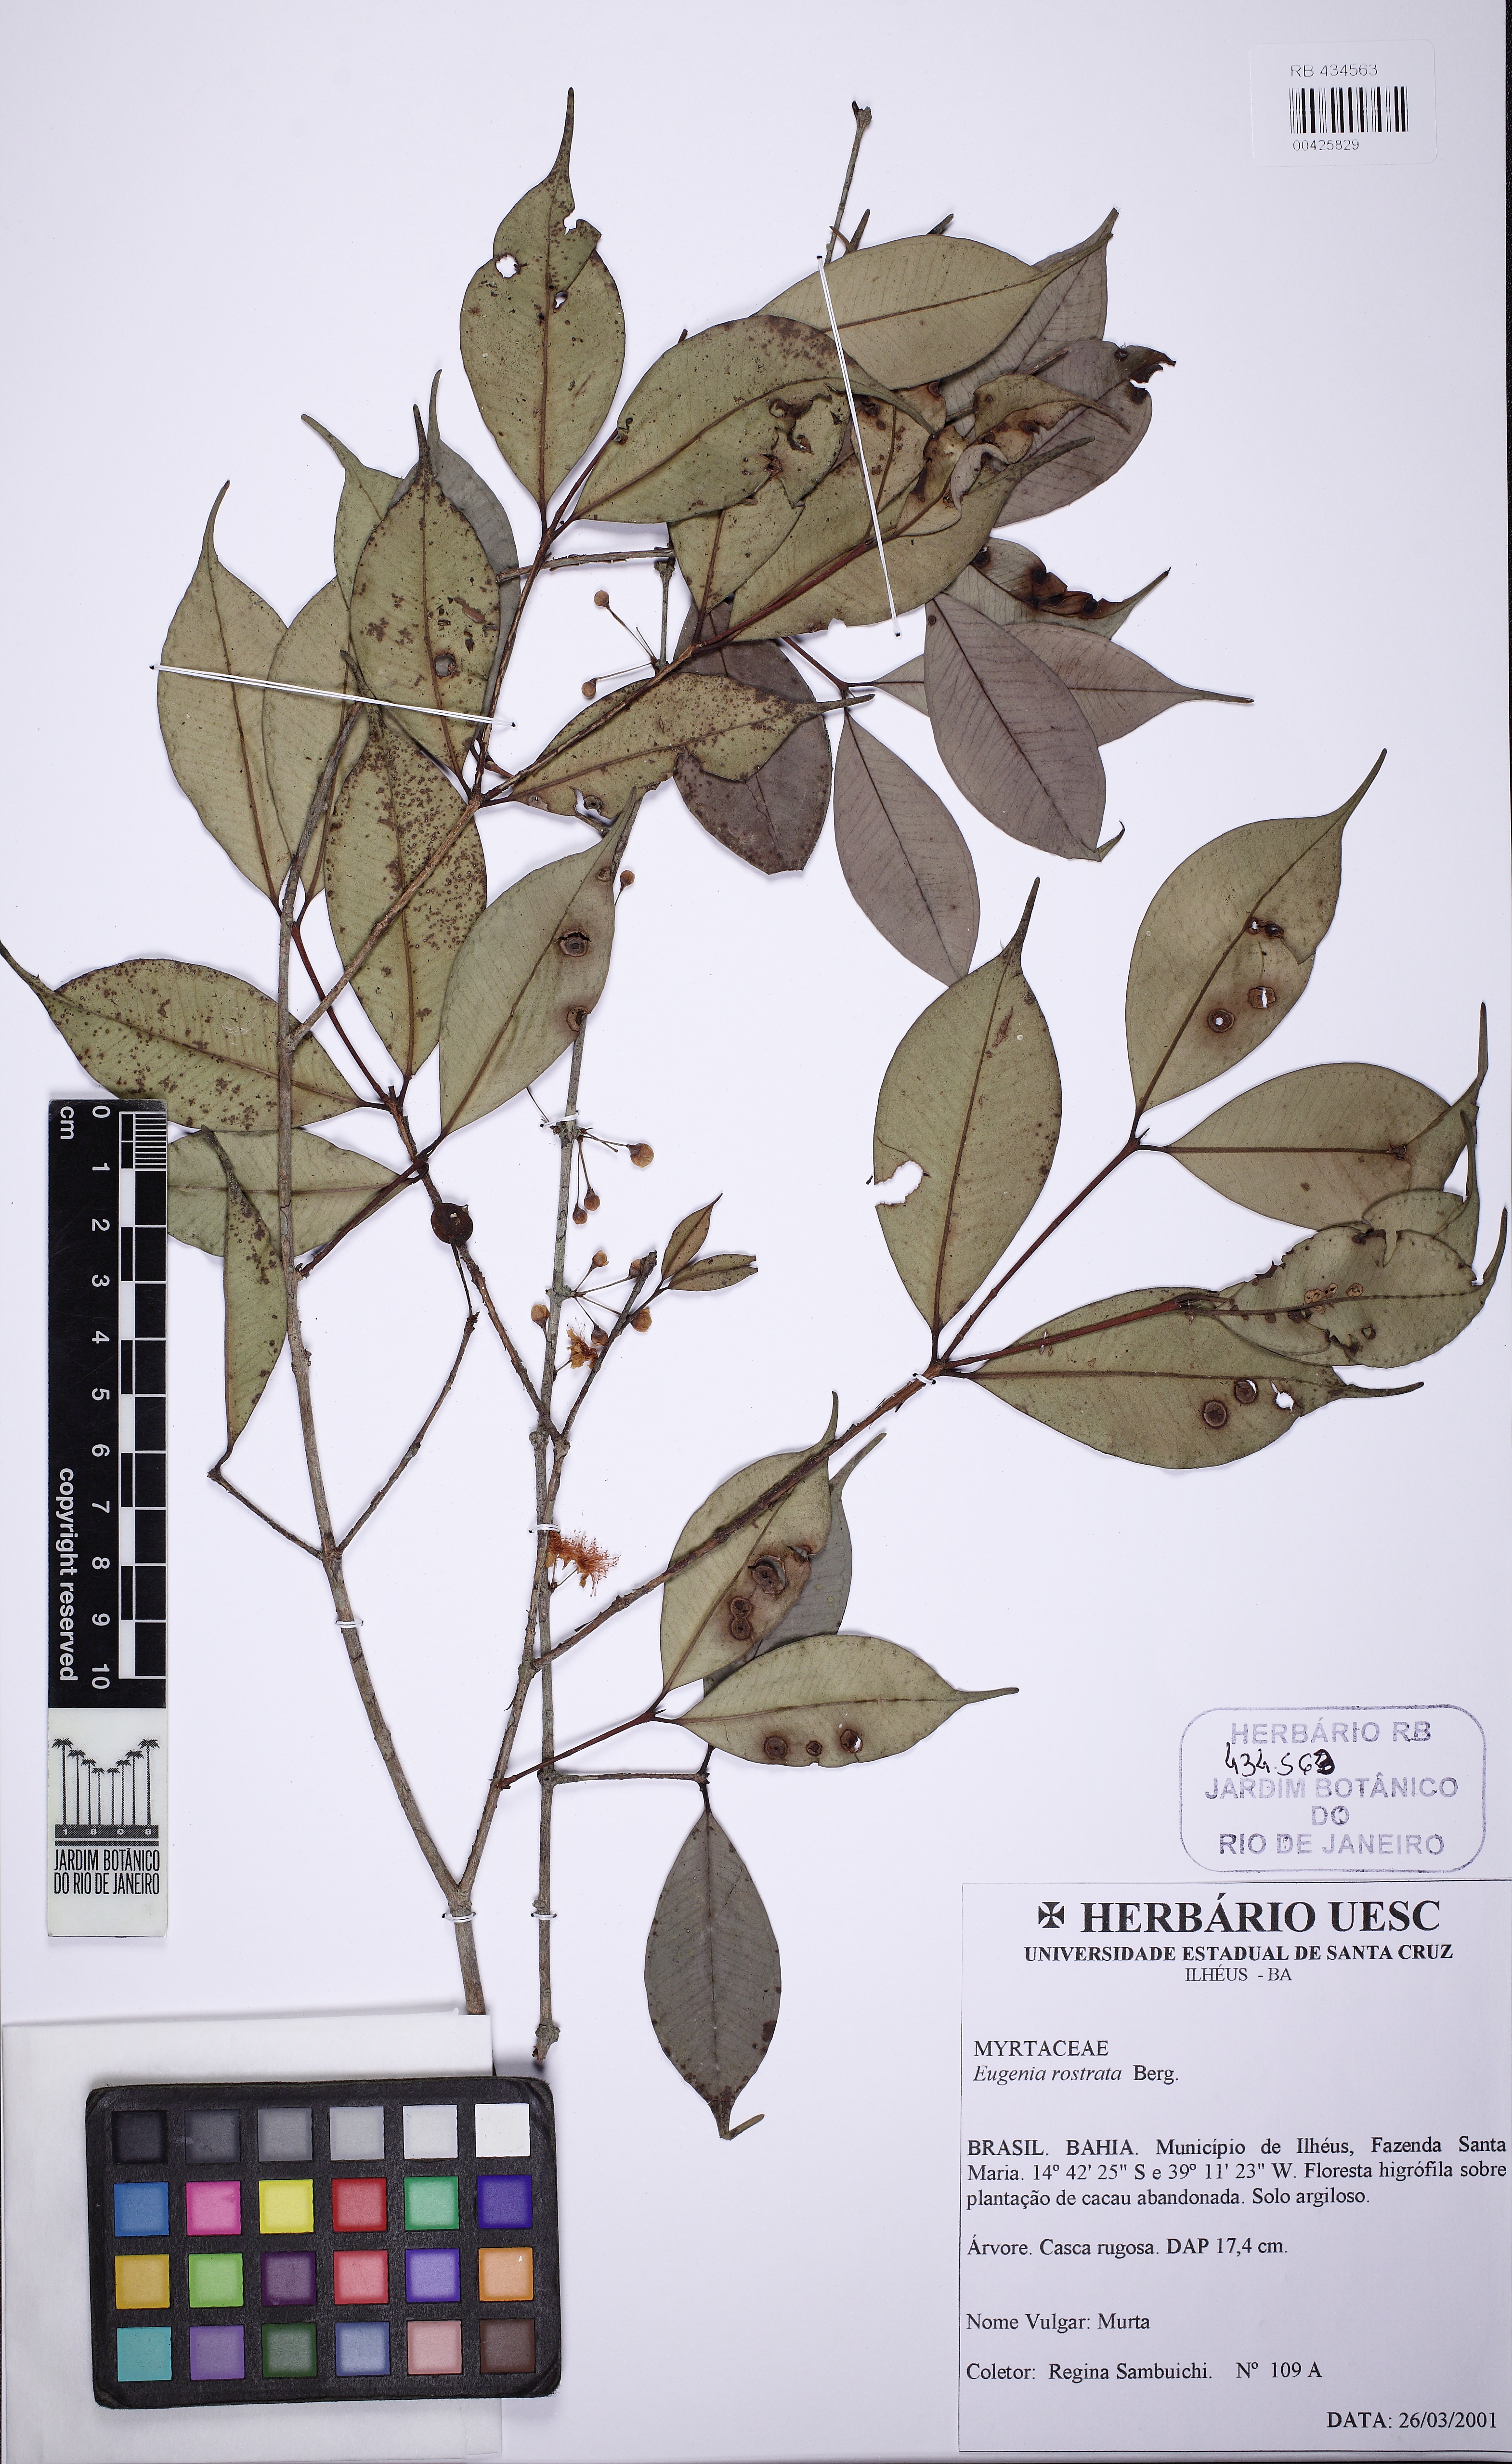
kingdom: Plantae
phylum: Tracheophyta
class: Magnoliopsida
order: Myrtales
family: Myrtaceae
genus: Eugenia
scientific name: Eugenia zuccarinii
